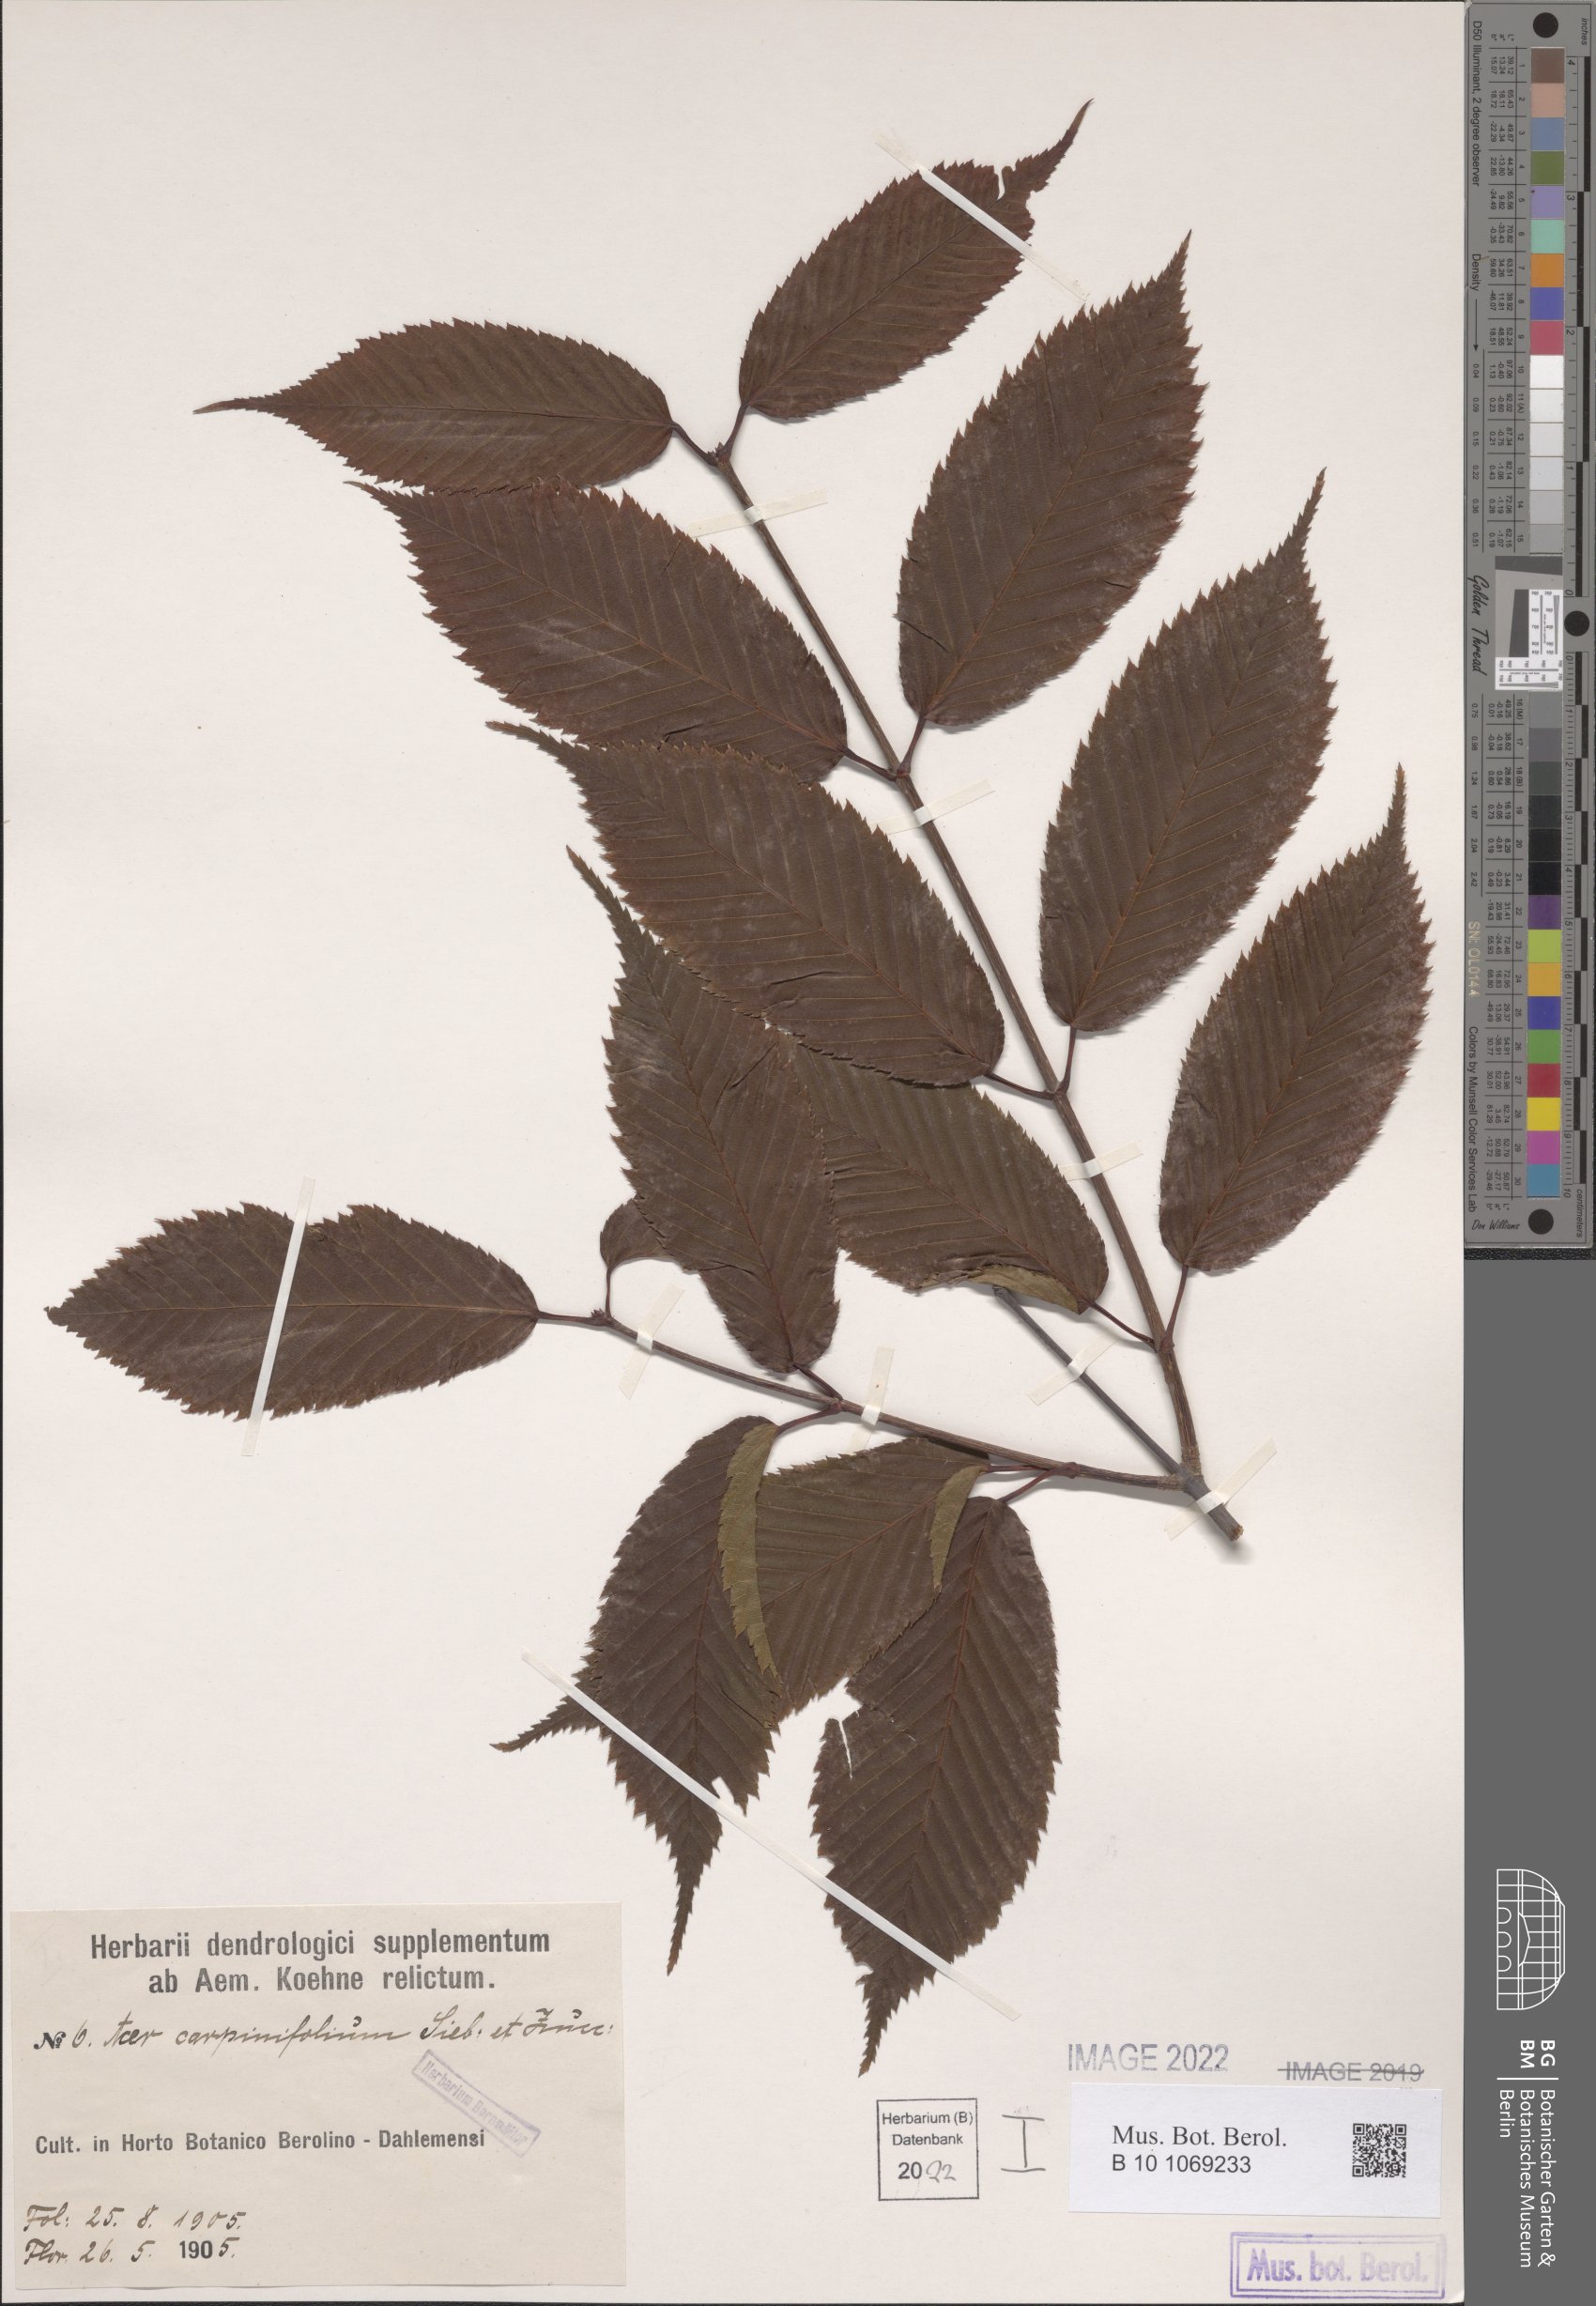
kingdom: Plantae
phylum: Tracheophyta
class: Magnoliopsida
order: Sapindales
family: Sapindaceae
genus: Acer
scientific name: Acer carpinifolium
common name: Hornbeam maple
